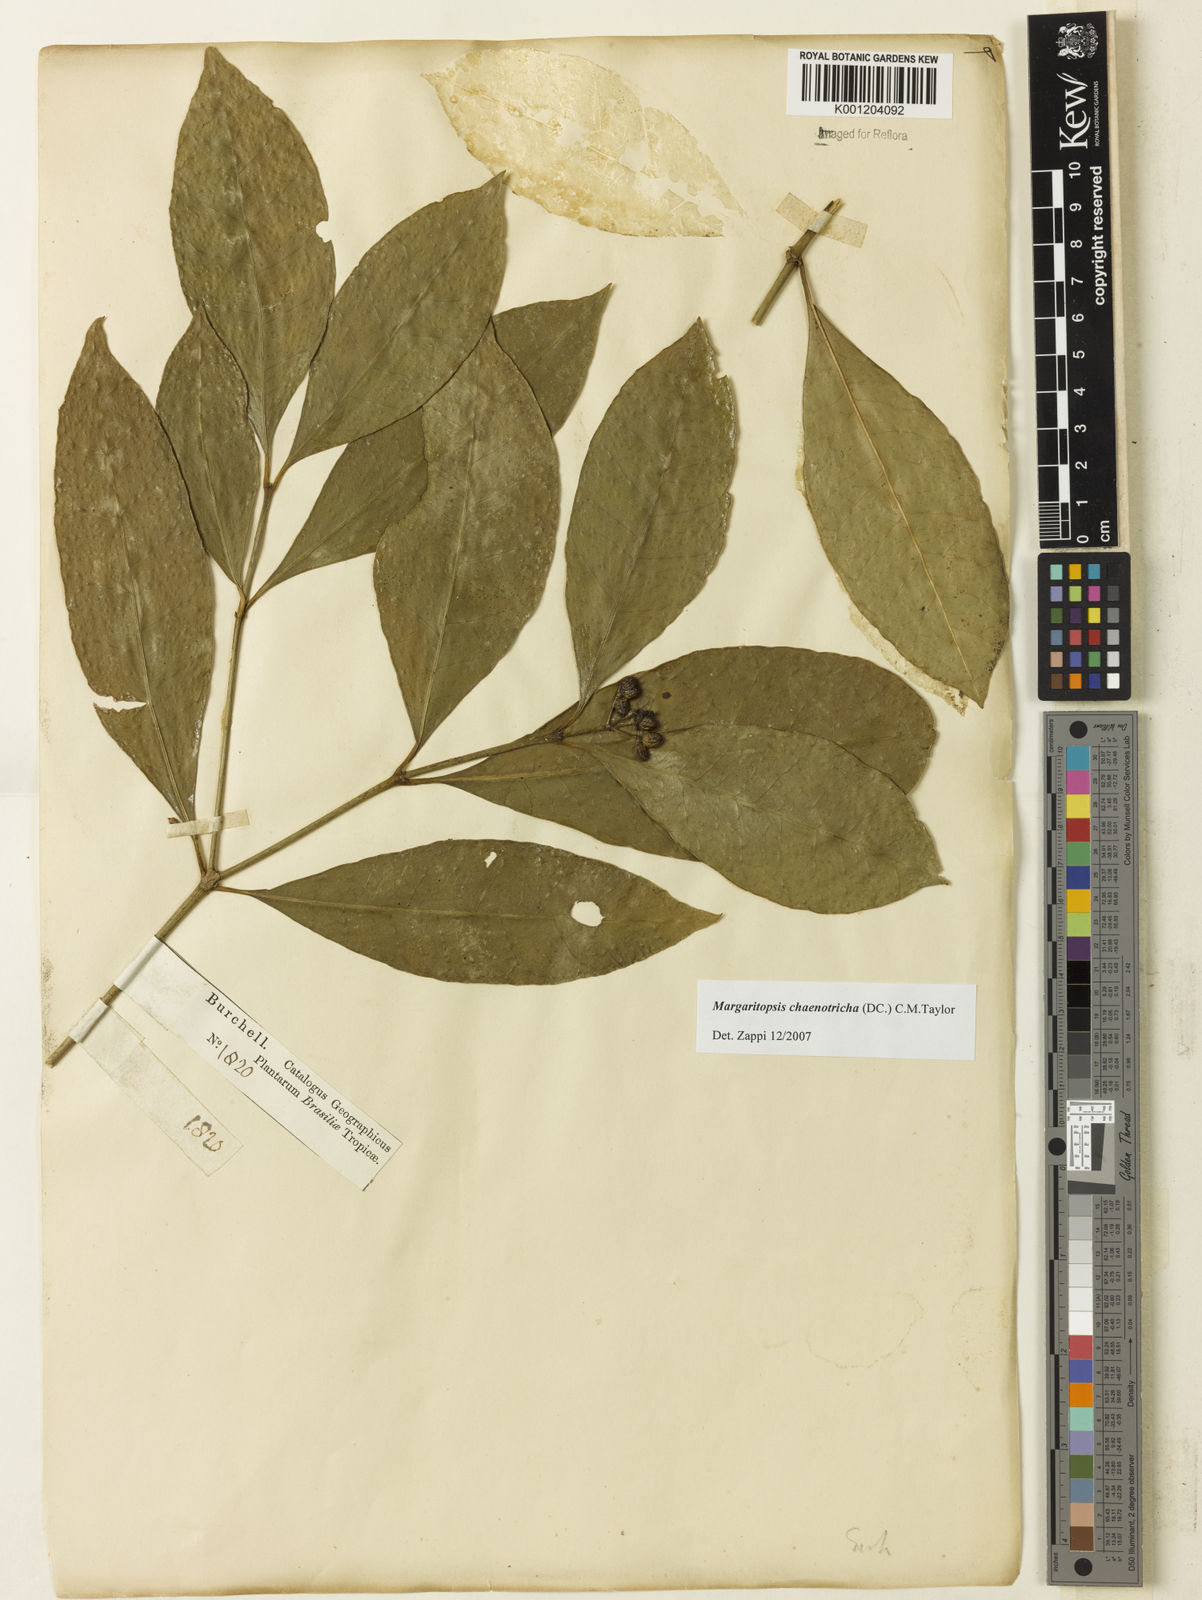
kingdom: Plantae
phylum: Tracheophyta
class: Magnoliopsida
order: Gentianales
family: Rubiaceae
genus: Eumachia
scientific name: Eumachia chaenotricha
